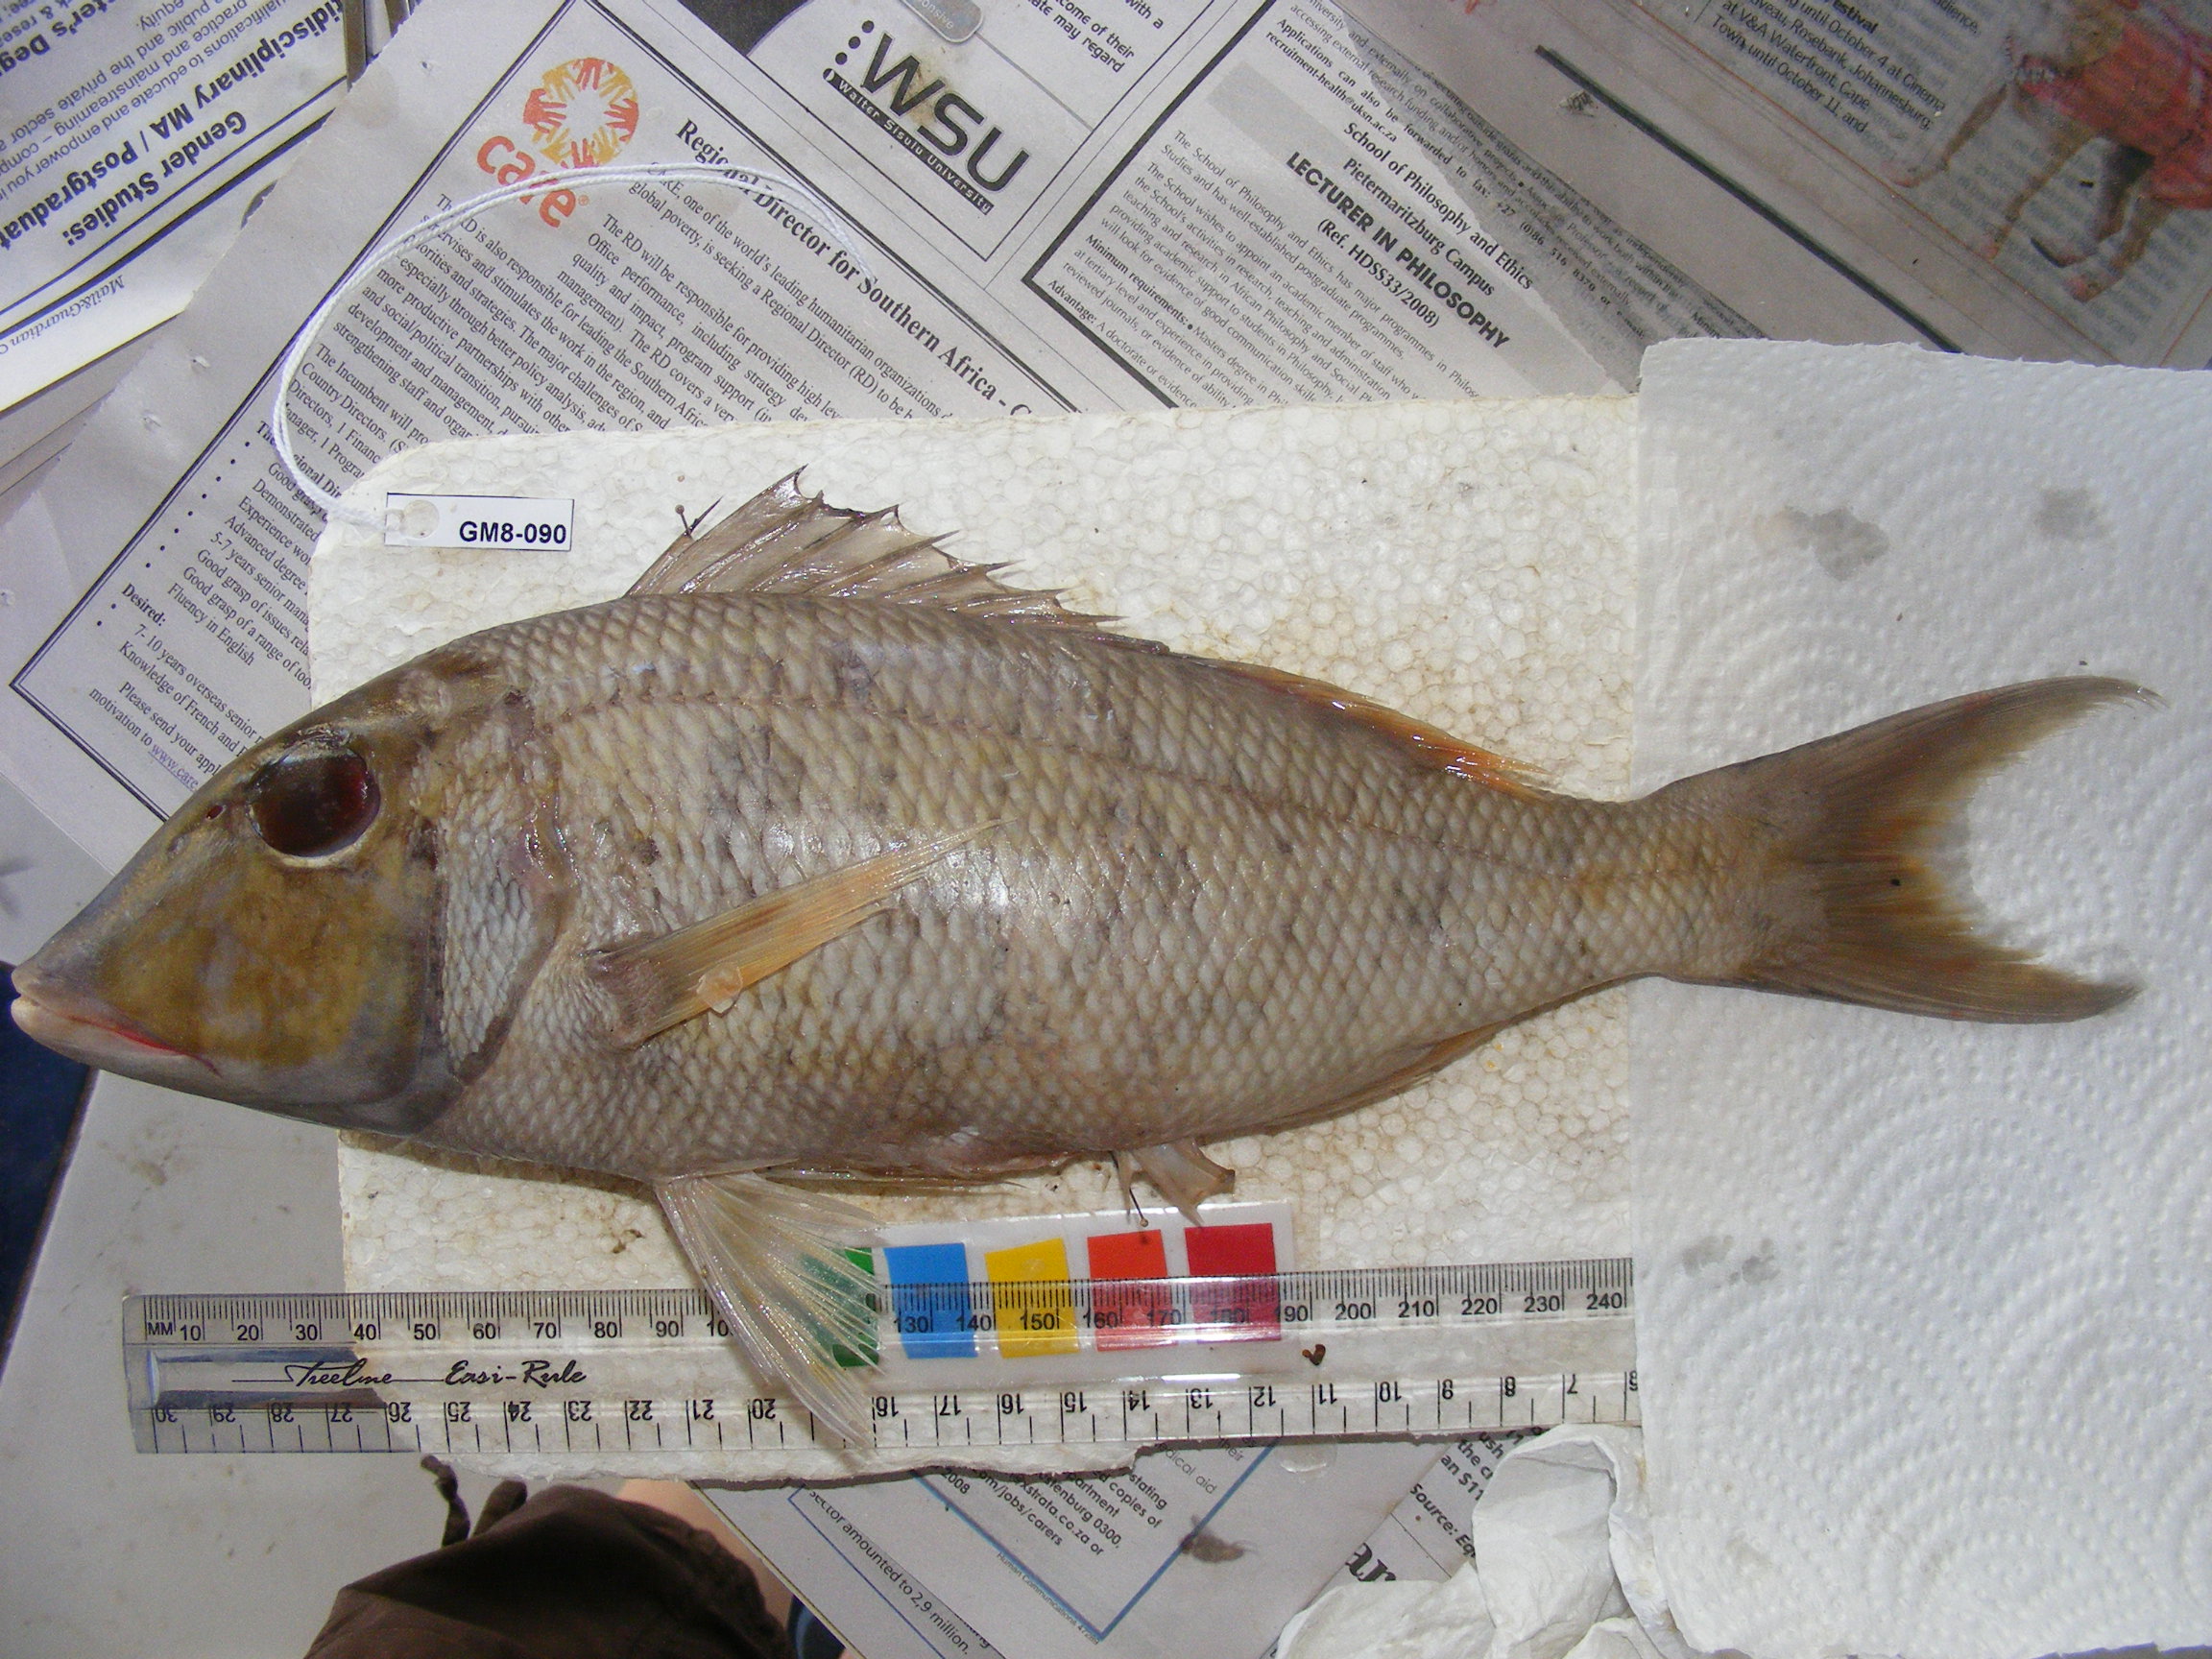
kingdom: Animalia
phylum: Chordata
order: Perciformes
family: Lethrinidae
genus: Lethrinus
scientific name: Lethrinus variegatus
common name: Variegated emperor
